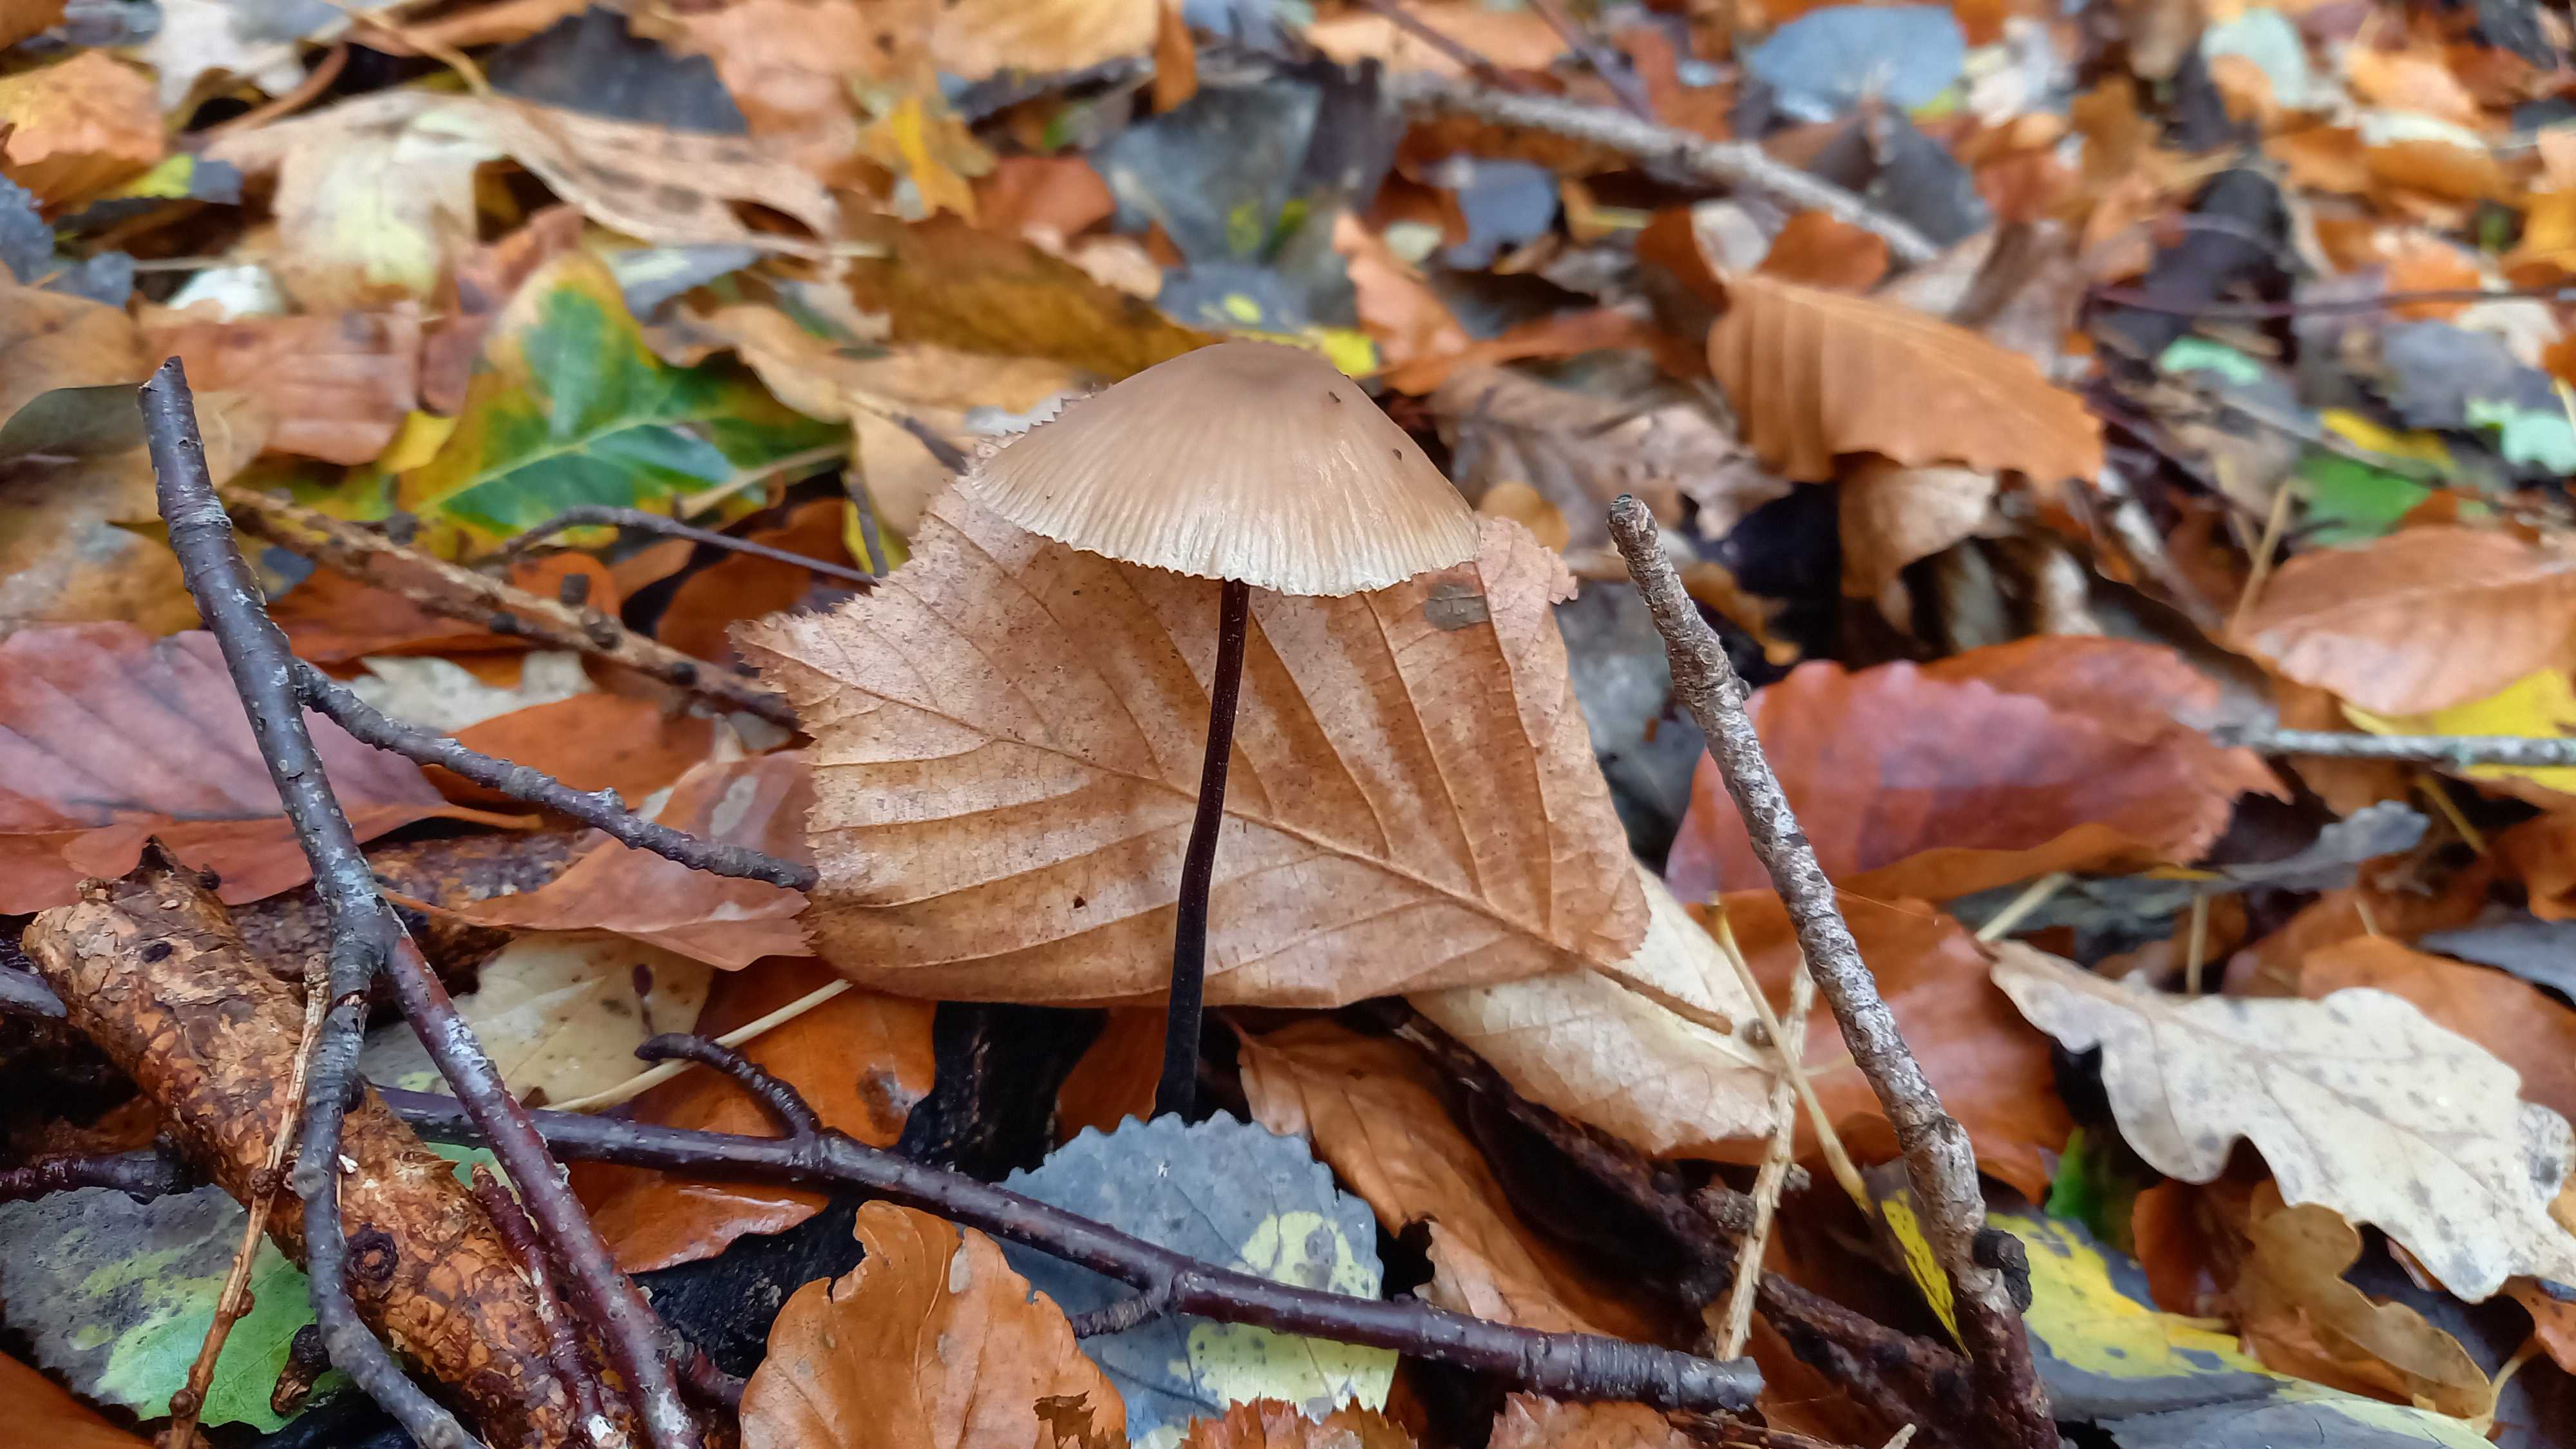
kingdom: Fungi
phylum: Basidiomycota
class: Agaricomycetes
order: Agaricales
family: Omphalotaceae
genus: Mycetinis
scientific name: Mycetinis alliaceus
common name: stor løghat
